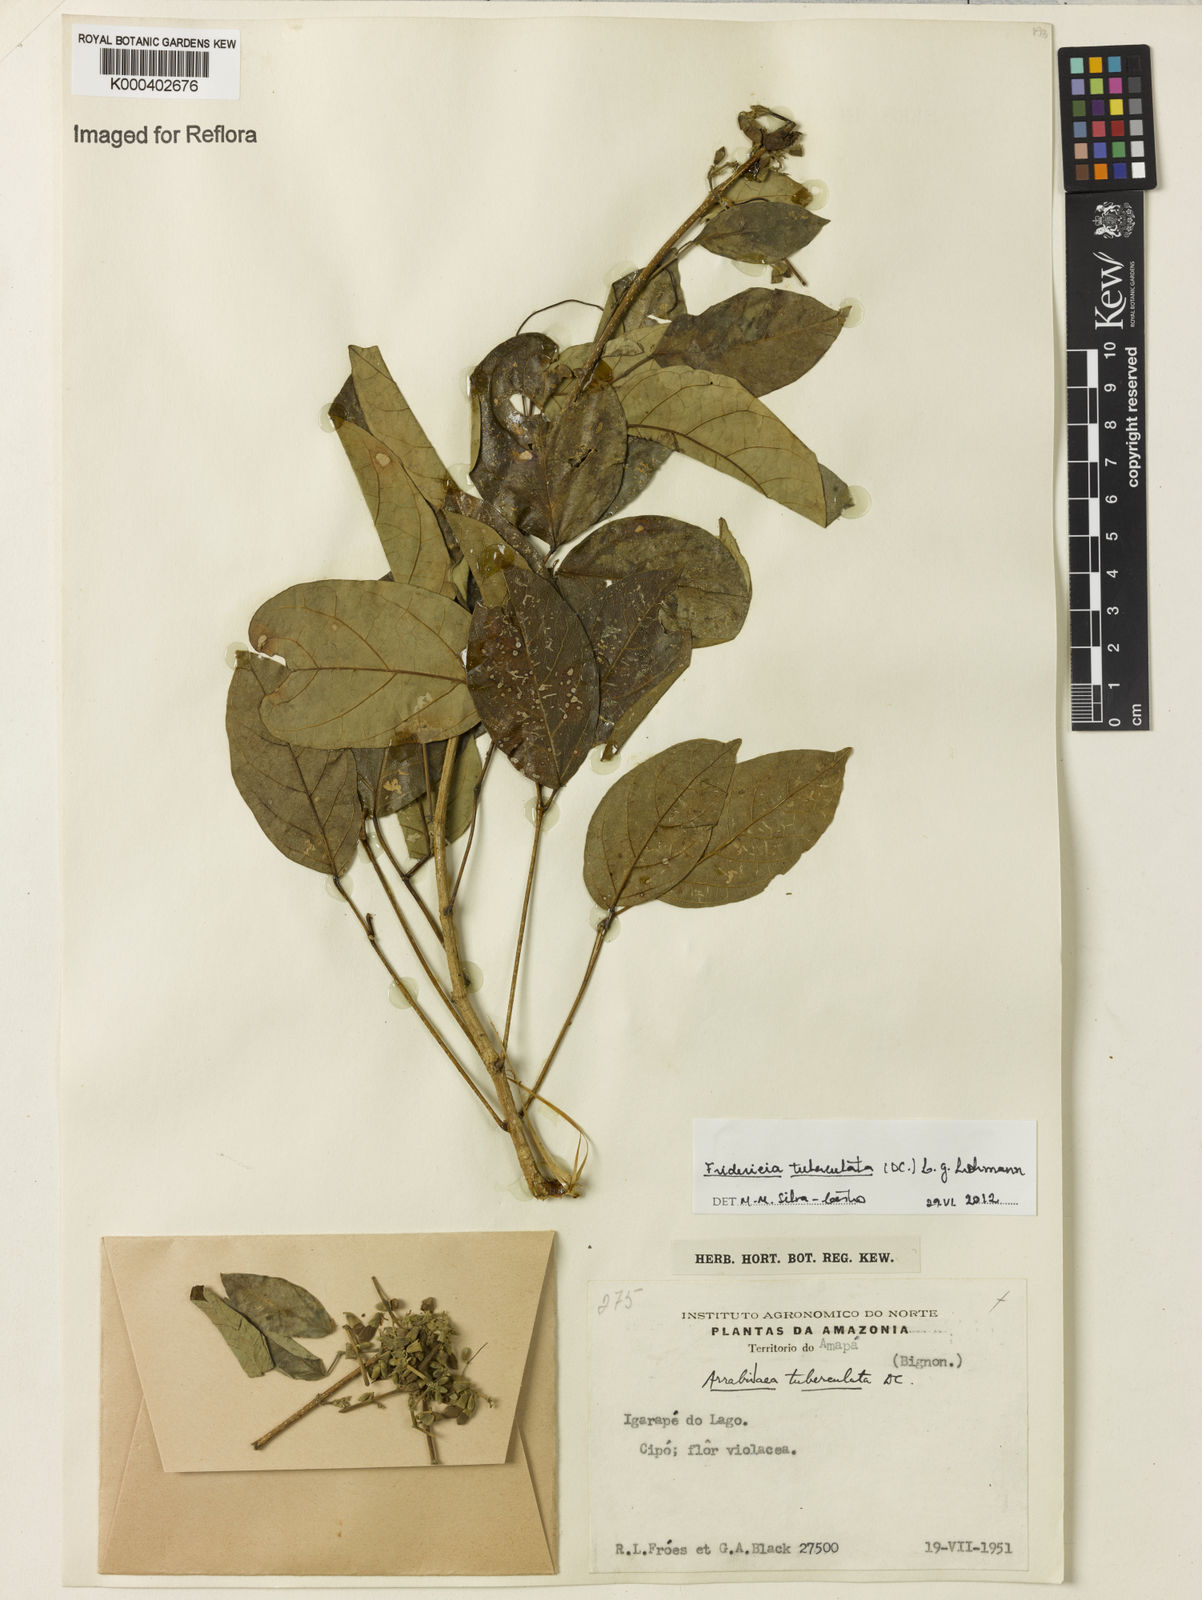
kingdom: Plantae
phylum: Tracheophyta
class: Magnoliopsida
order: Lamiales
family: Bignoniaceae
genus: Fridericia
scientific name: Fridericia tuberculata
